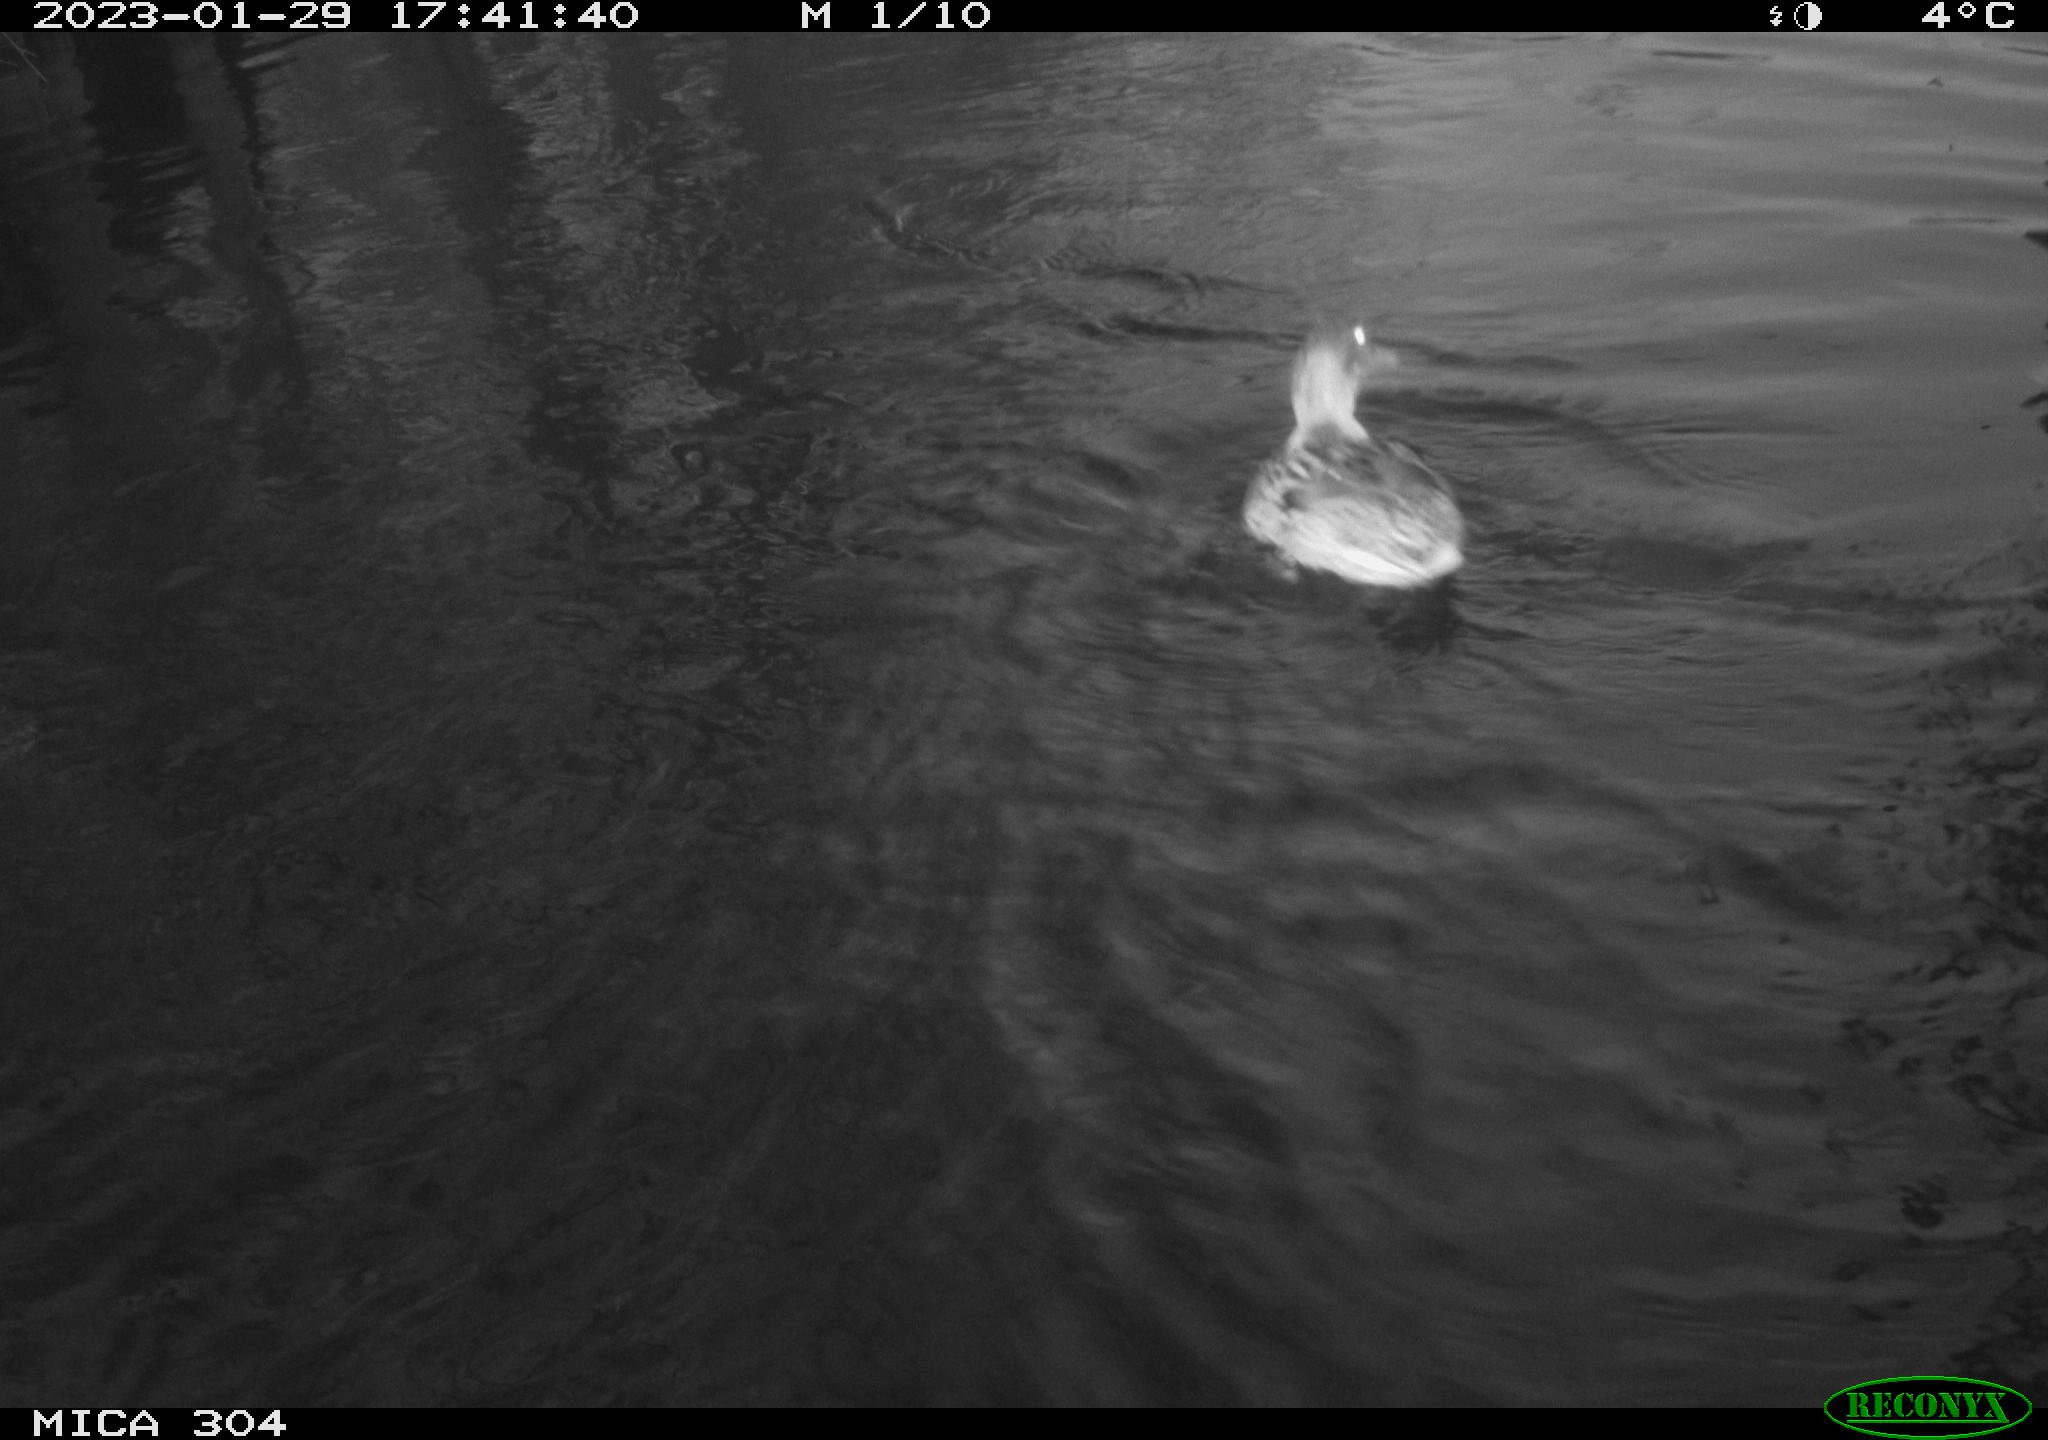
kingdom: Animalia
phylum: Chordata
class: Aves
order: Anseriformes
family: Anatidae
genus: Anas
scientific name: Anas
